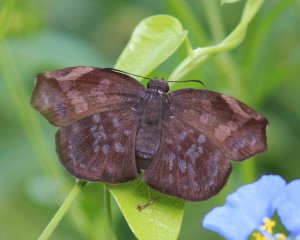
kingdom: Animalia
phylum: Arthropoda
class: Insecta
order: Lepidoptera
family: Hesperiidae
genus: Achlyodes
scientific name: Achlyodes thraso
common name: Sickle-winged Skipper
